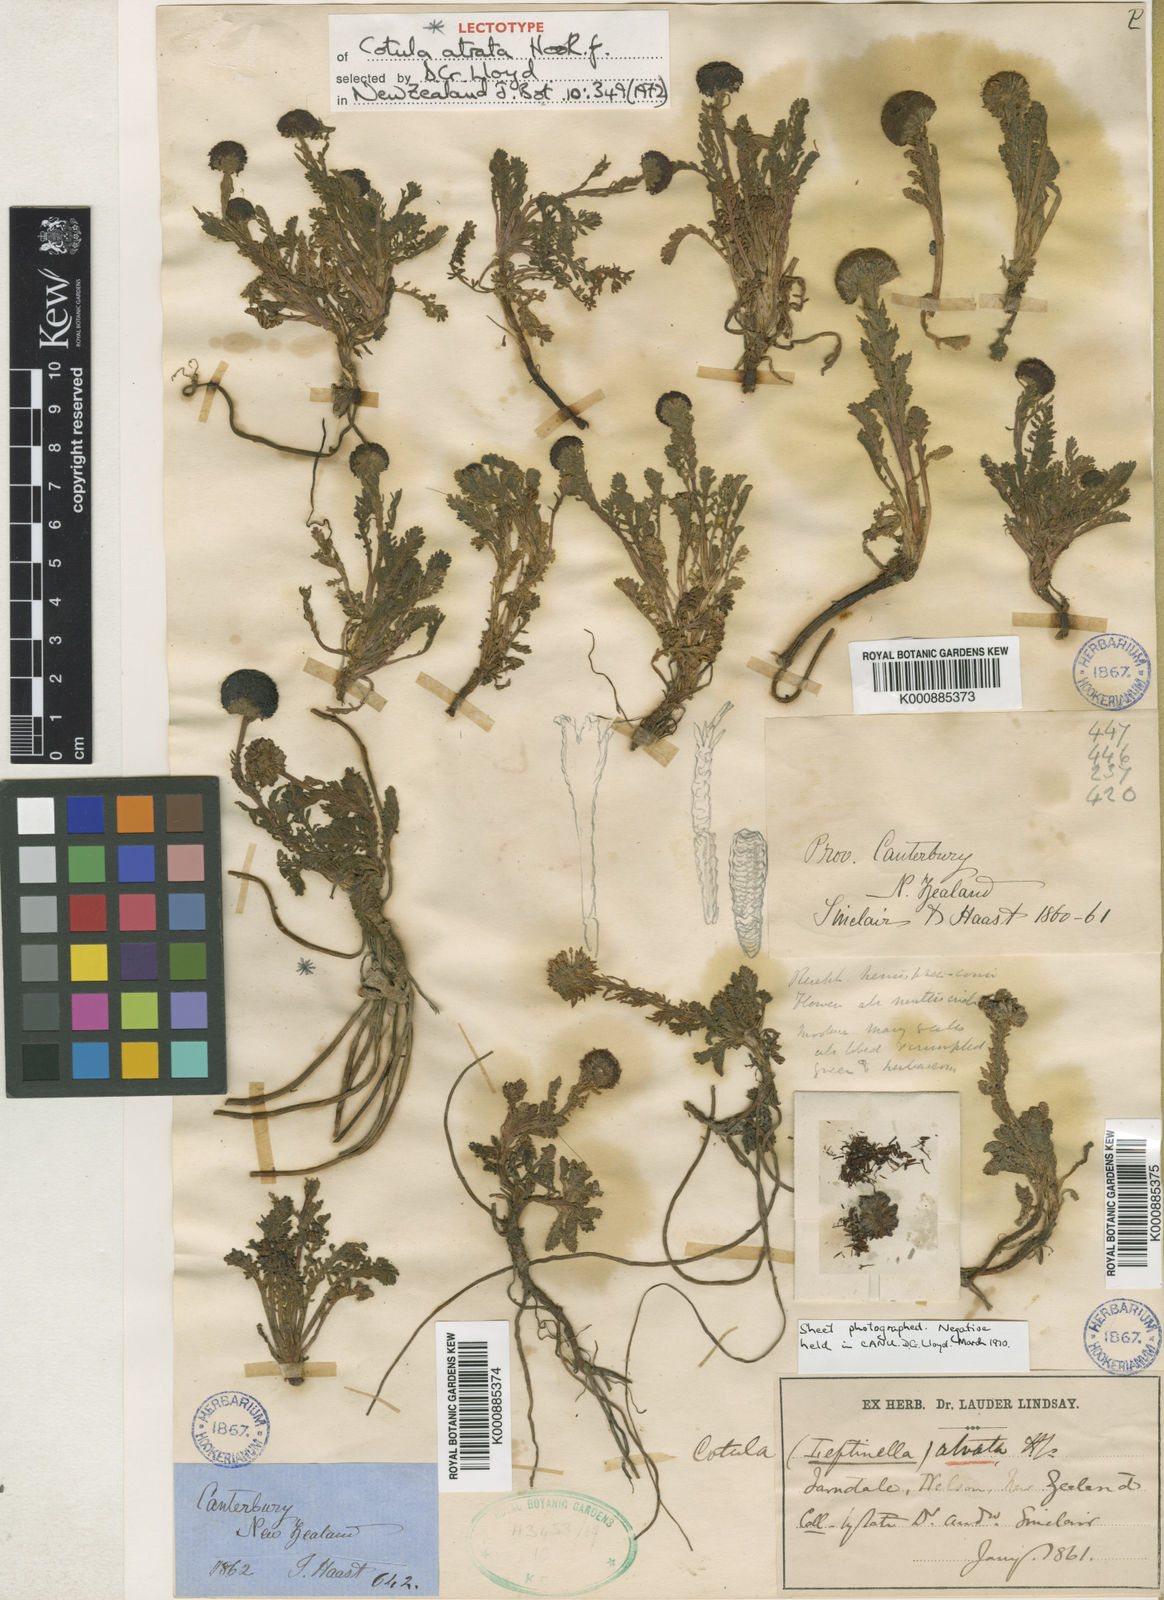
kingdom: Plantae
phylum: Tracheophyta
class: Magnoliopsida
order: Asterales
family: Asteraceae
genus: Leptinella
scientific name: Leptinella
